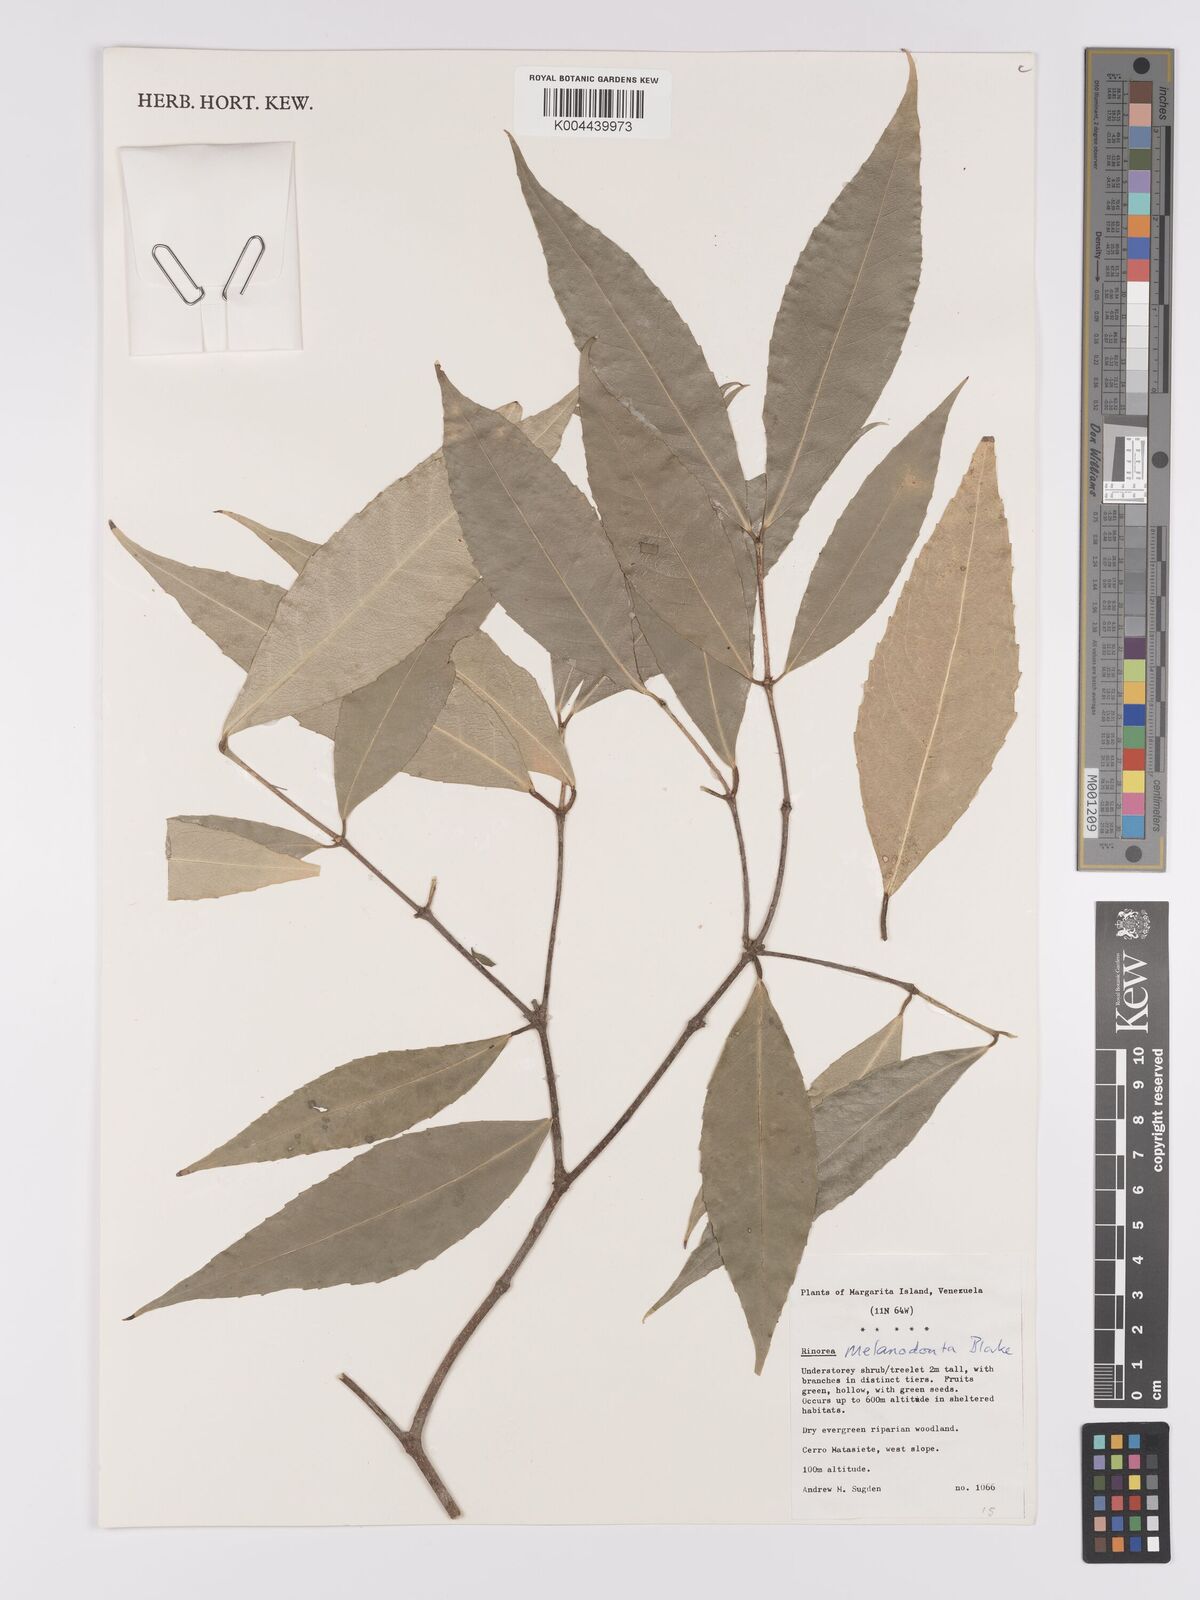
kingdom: Plantae
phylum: Tracheophyta
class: Magnoliopsida
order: Malpighiales
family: Violaceae
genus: Rinorea
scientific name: Rinorea melanodonta
